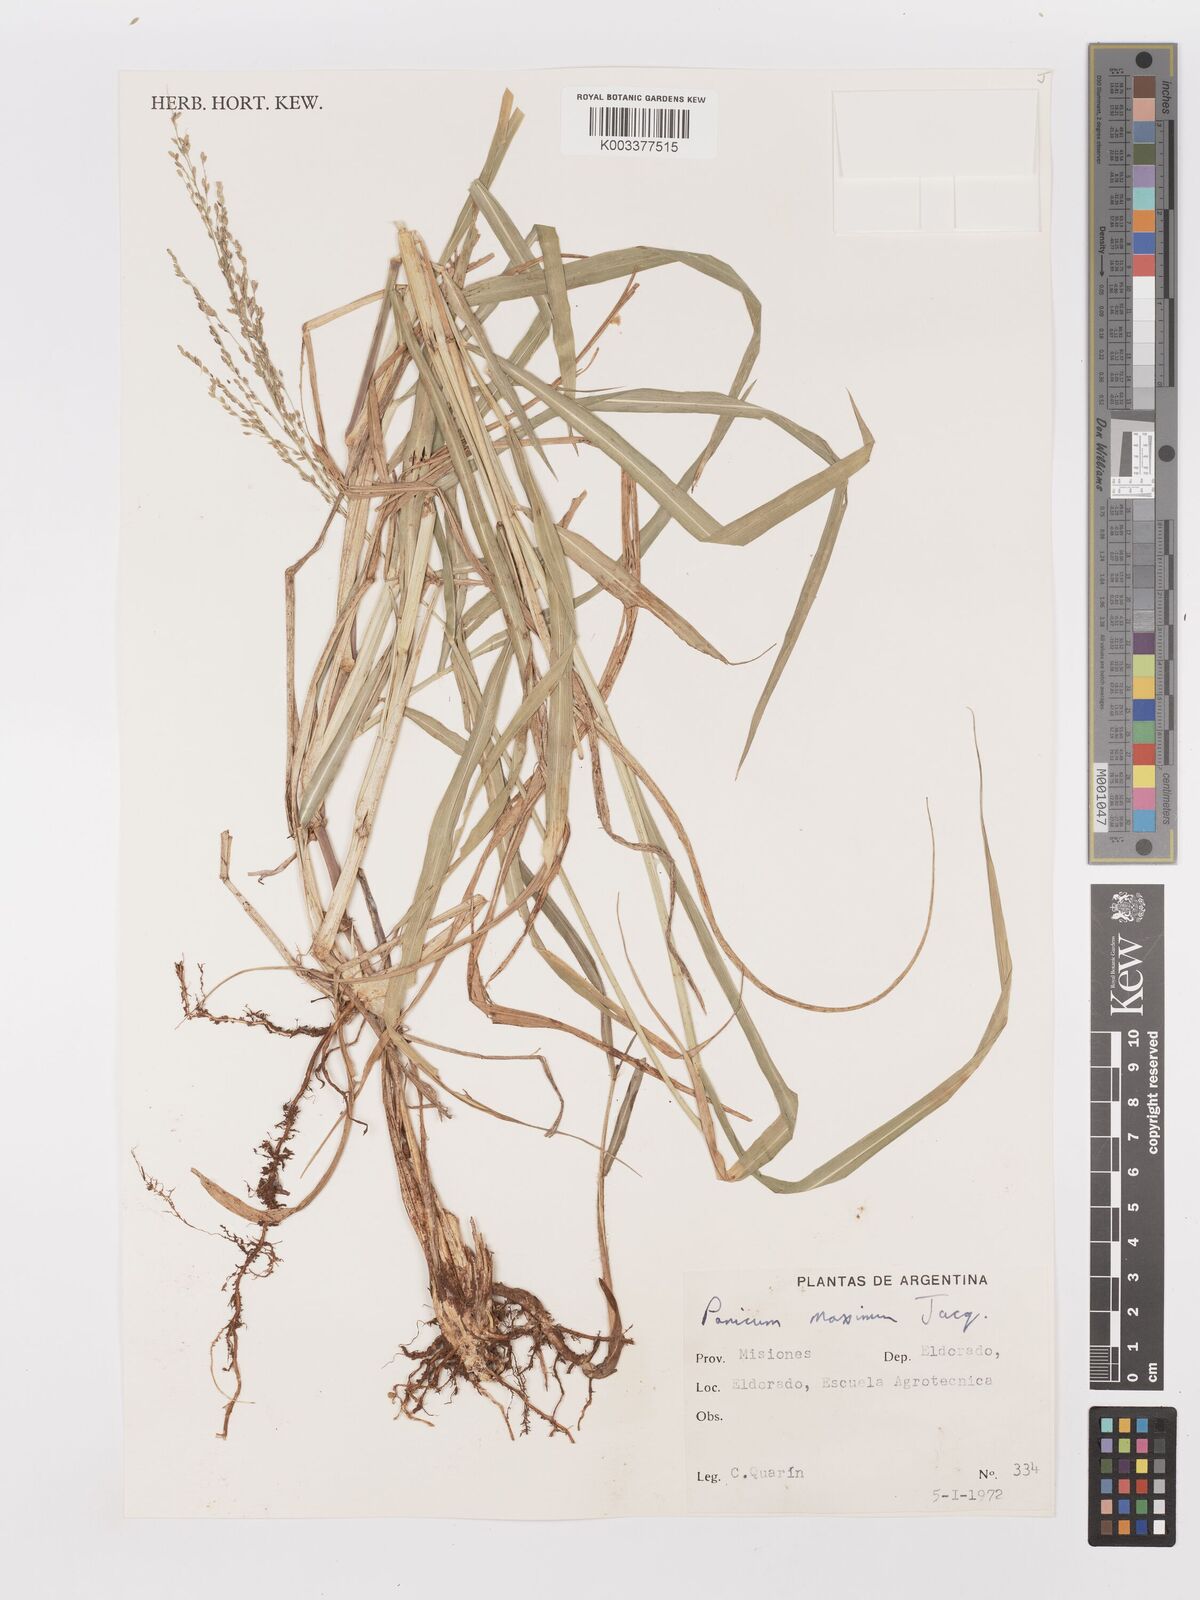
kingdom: Plantae
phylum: Tracheophyta
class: Liliopsida
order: Poales
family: Poaceae
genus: Megathyrsus
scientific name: Megathyrsus maximus
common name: Guineagrass
